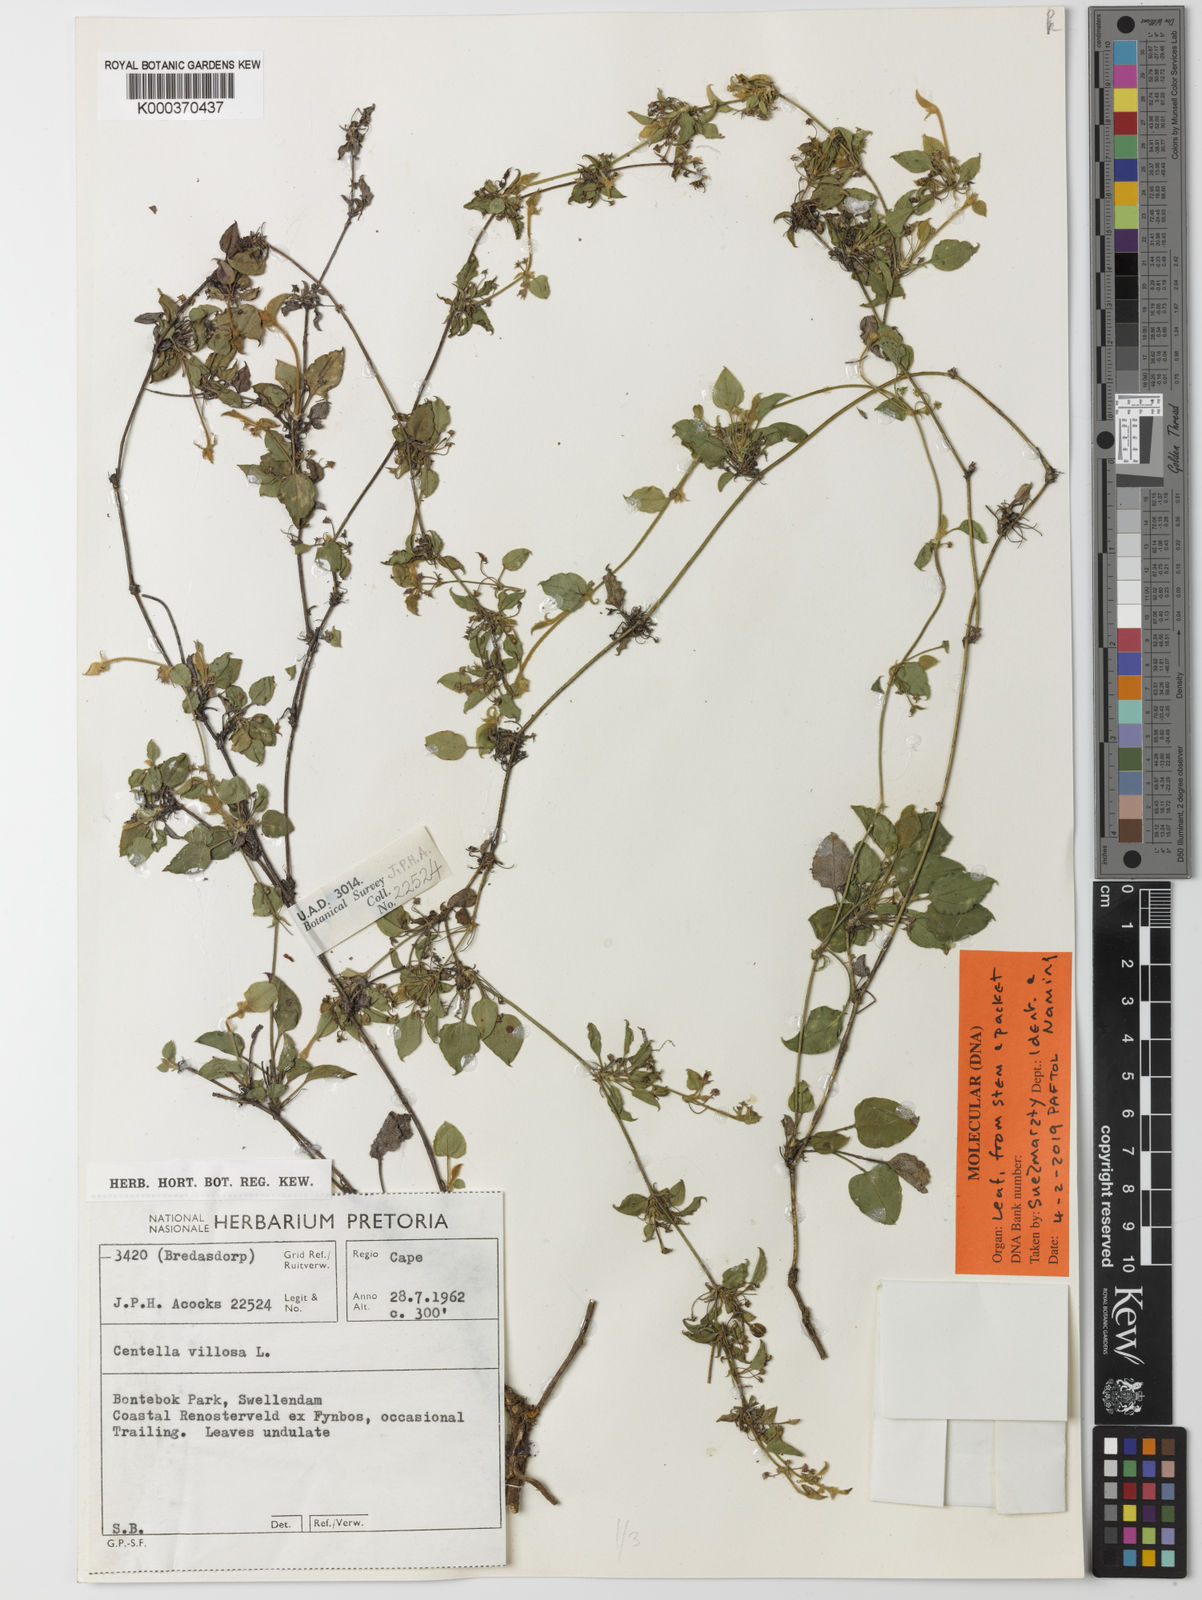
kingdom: Plantae
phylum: Tracheophyta
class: Magnoliopsida
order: Apiales
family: Apiaceae
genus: Centella
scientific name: Centella villosa
